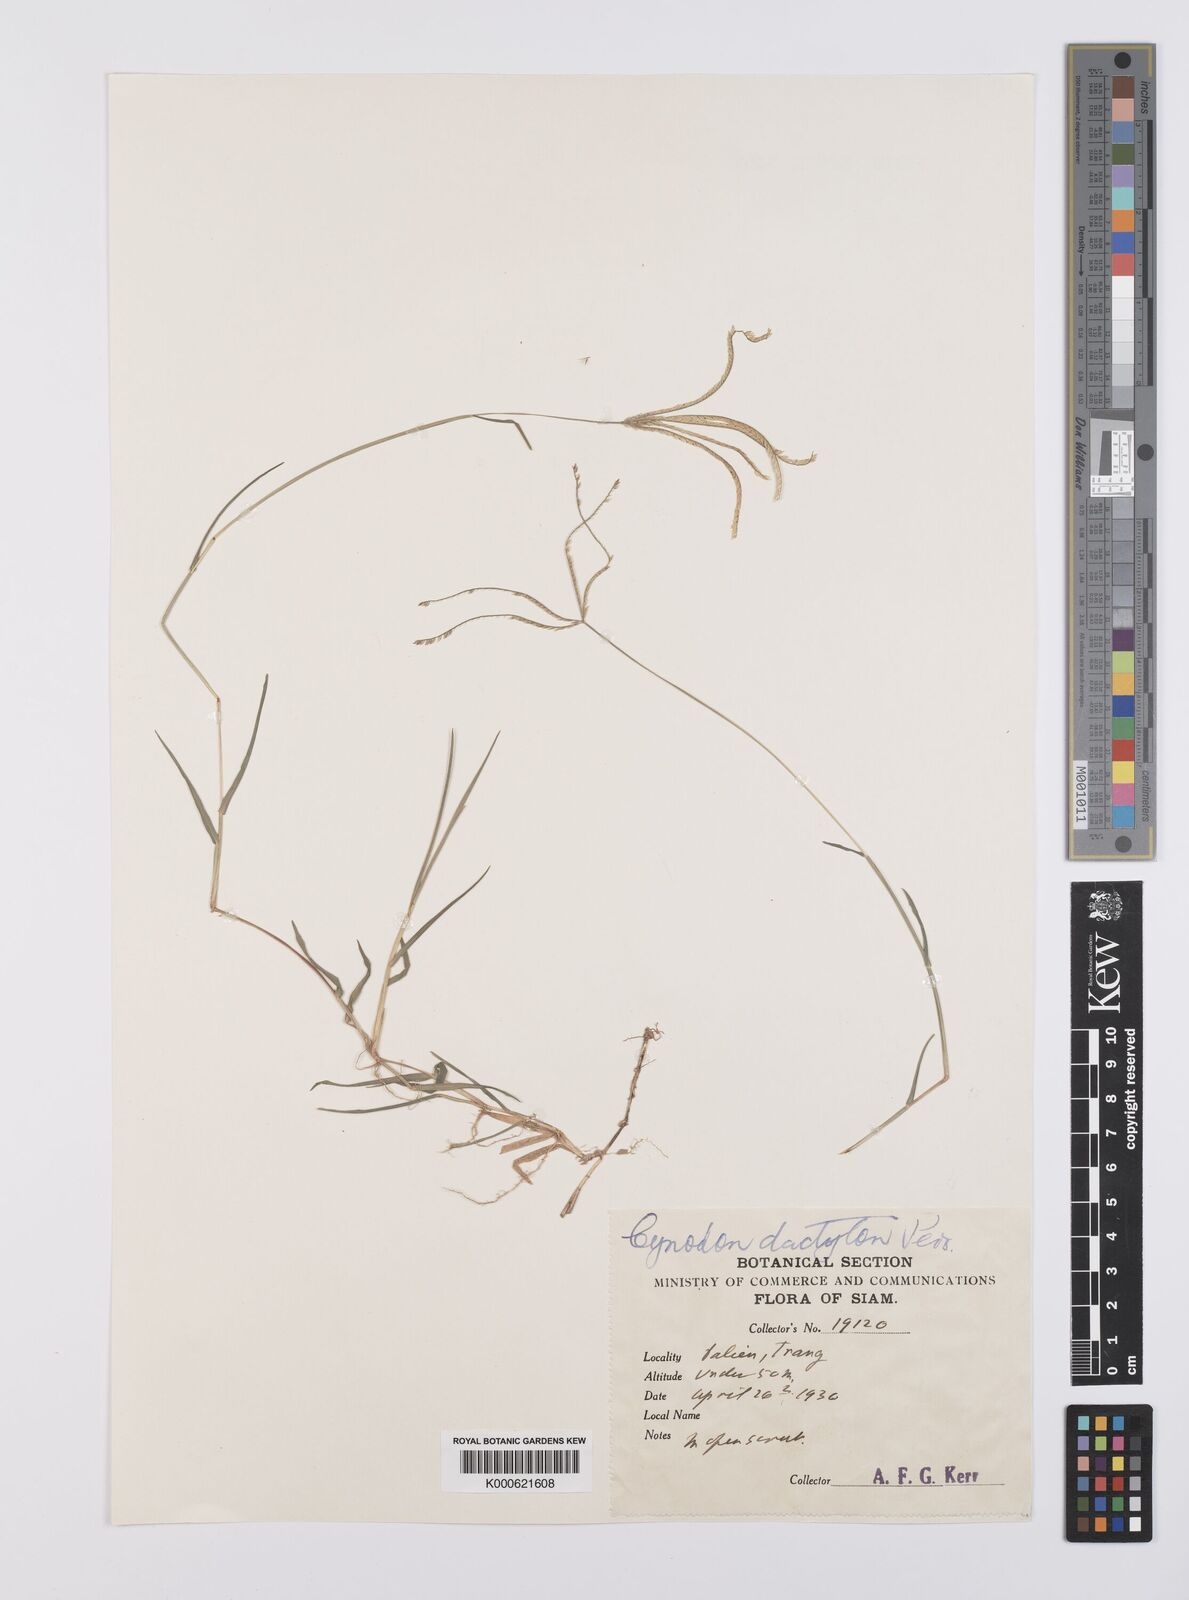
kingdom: Plantae
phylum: Tracheophyta
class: Liliopsida
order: Poales
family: Poaceae
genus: Cynodon
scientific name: Cynodon dactylon
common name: Bermuda grass
